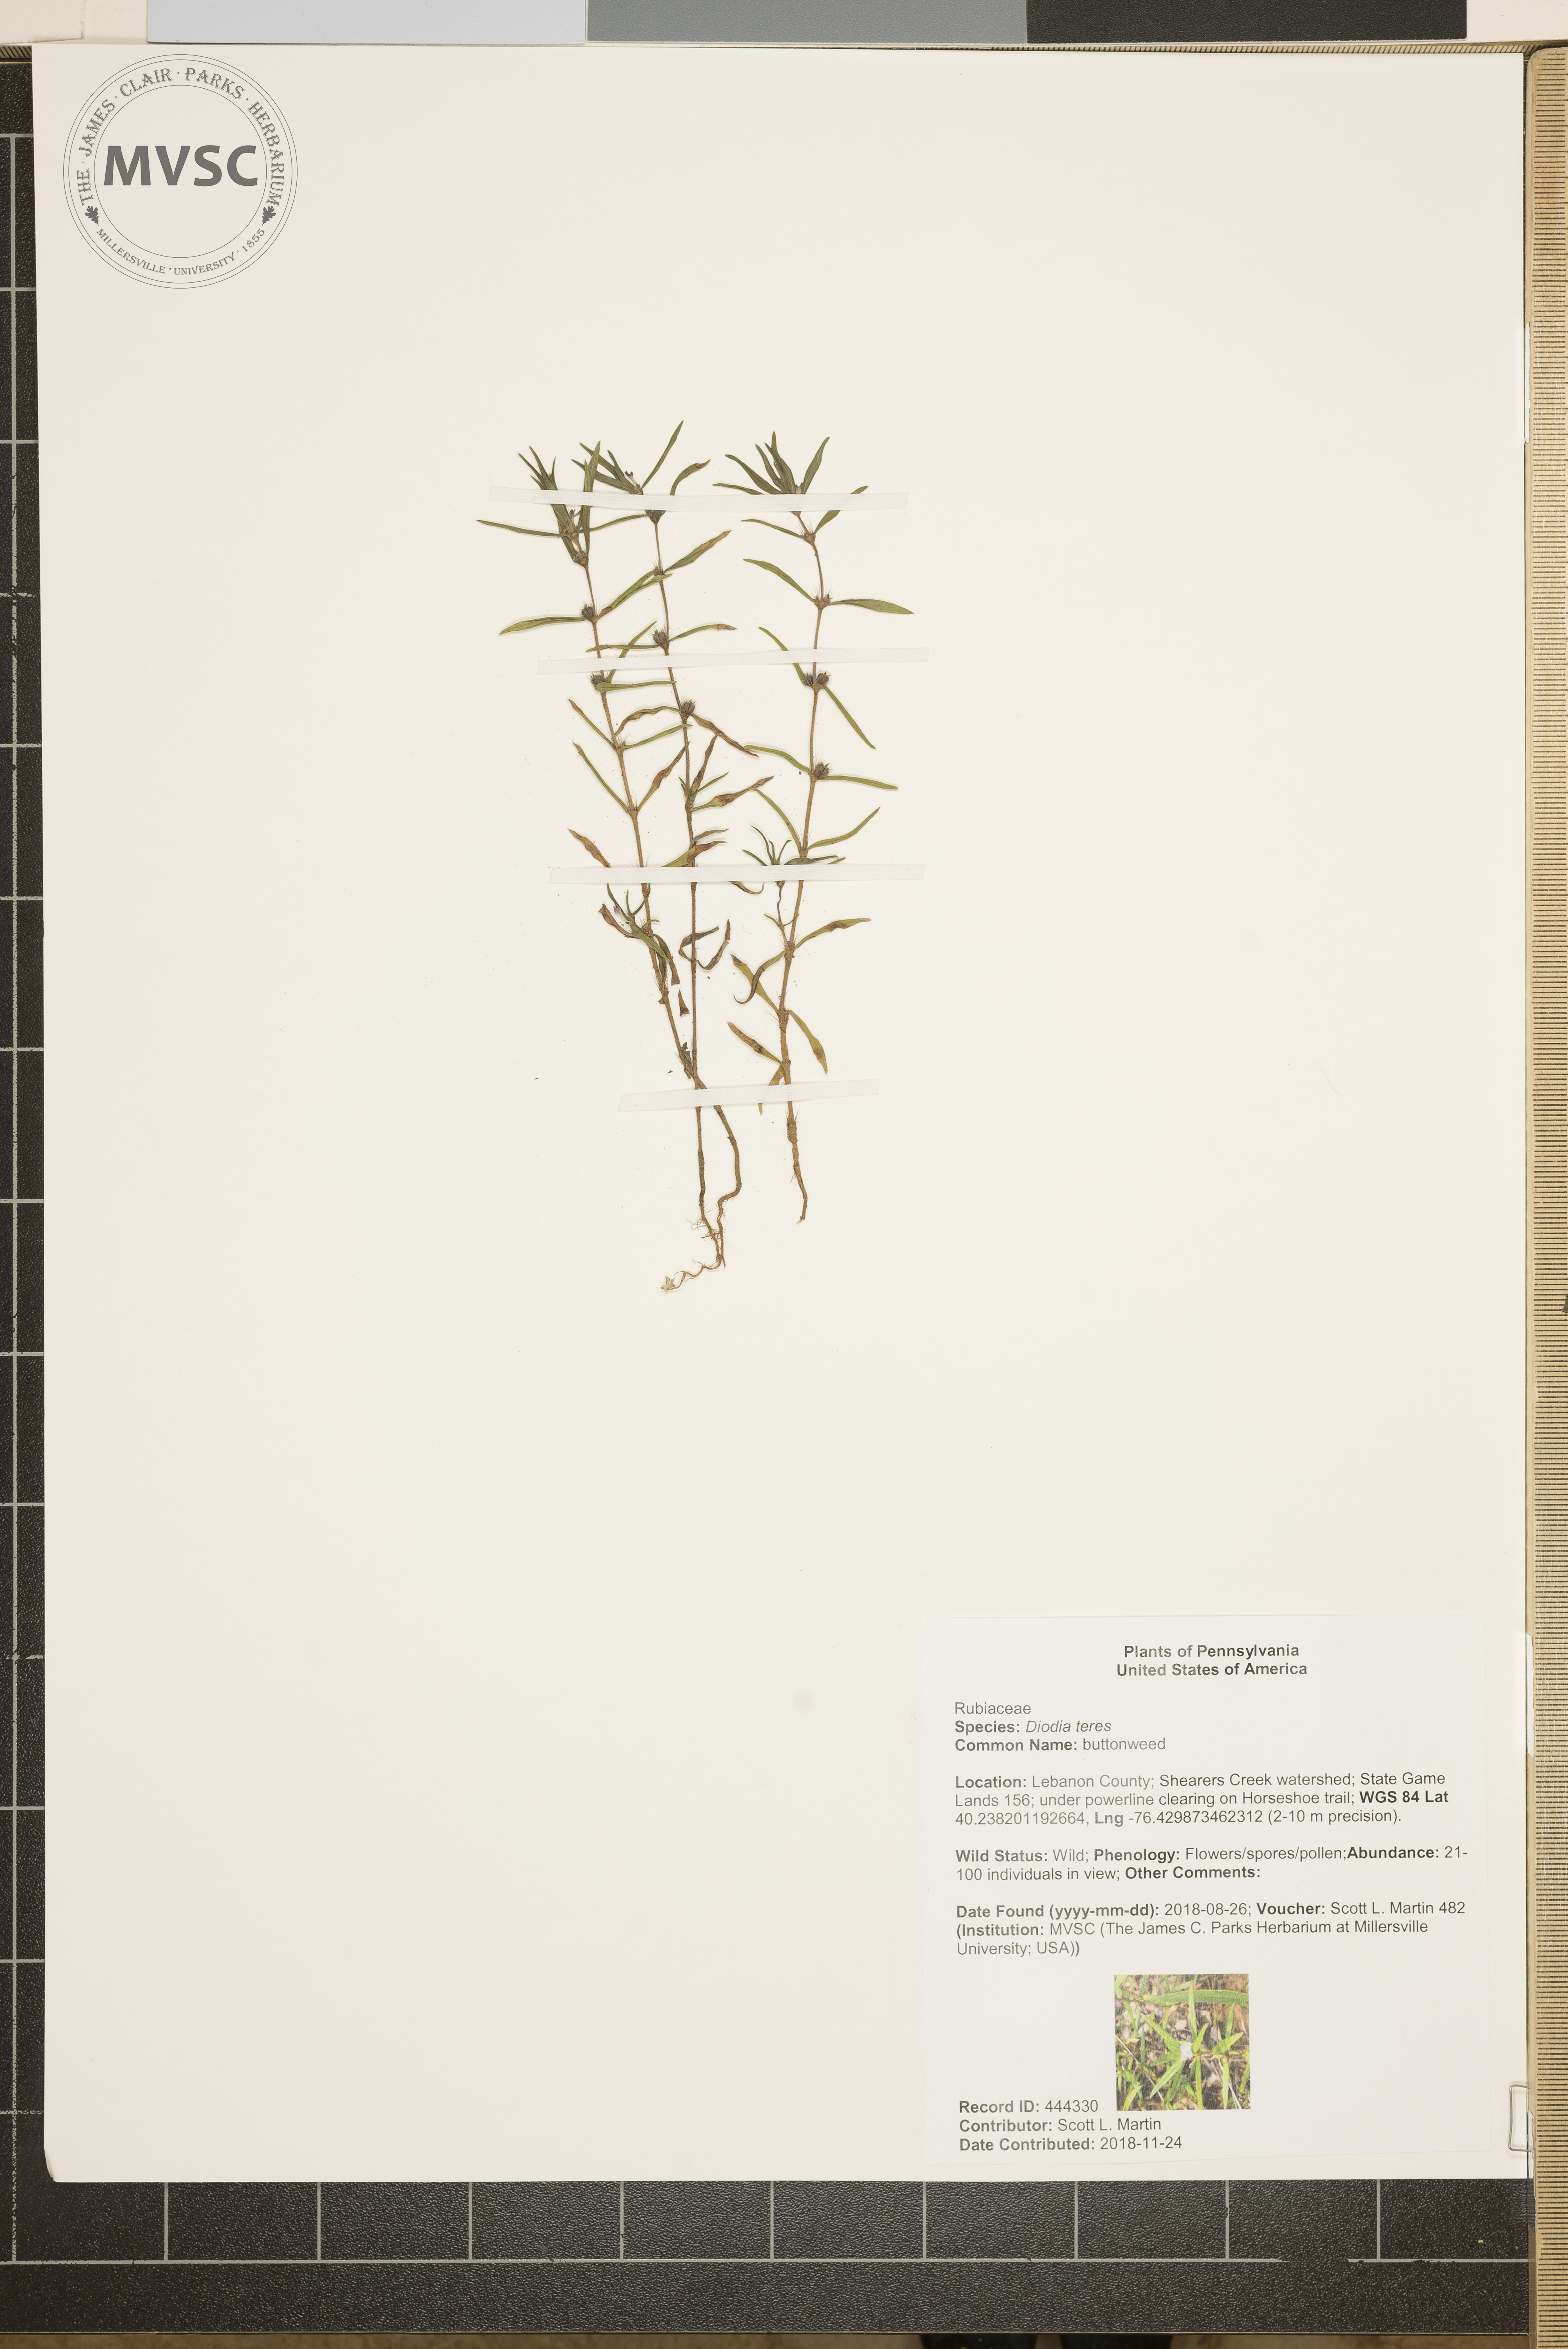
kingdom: Plantae
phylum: Tracheophyta
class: Magnoliopsida
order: Gentianales
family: Rubiaceae
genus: Hexasepalum
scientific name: Hexasepalum teres
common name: buttonweed
